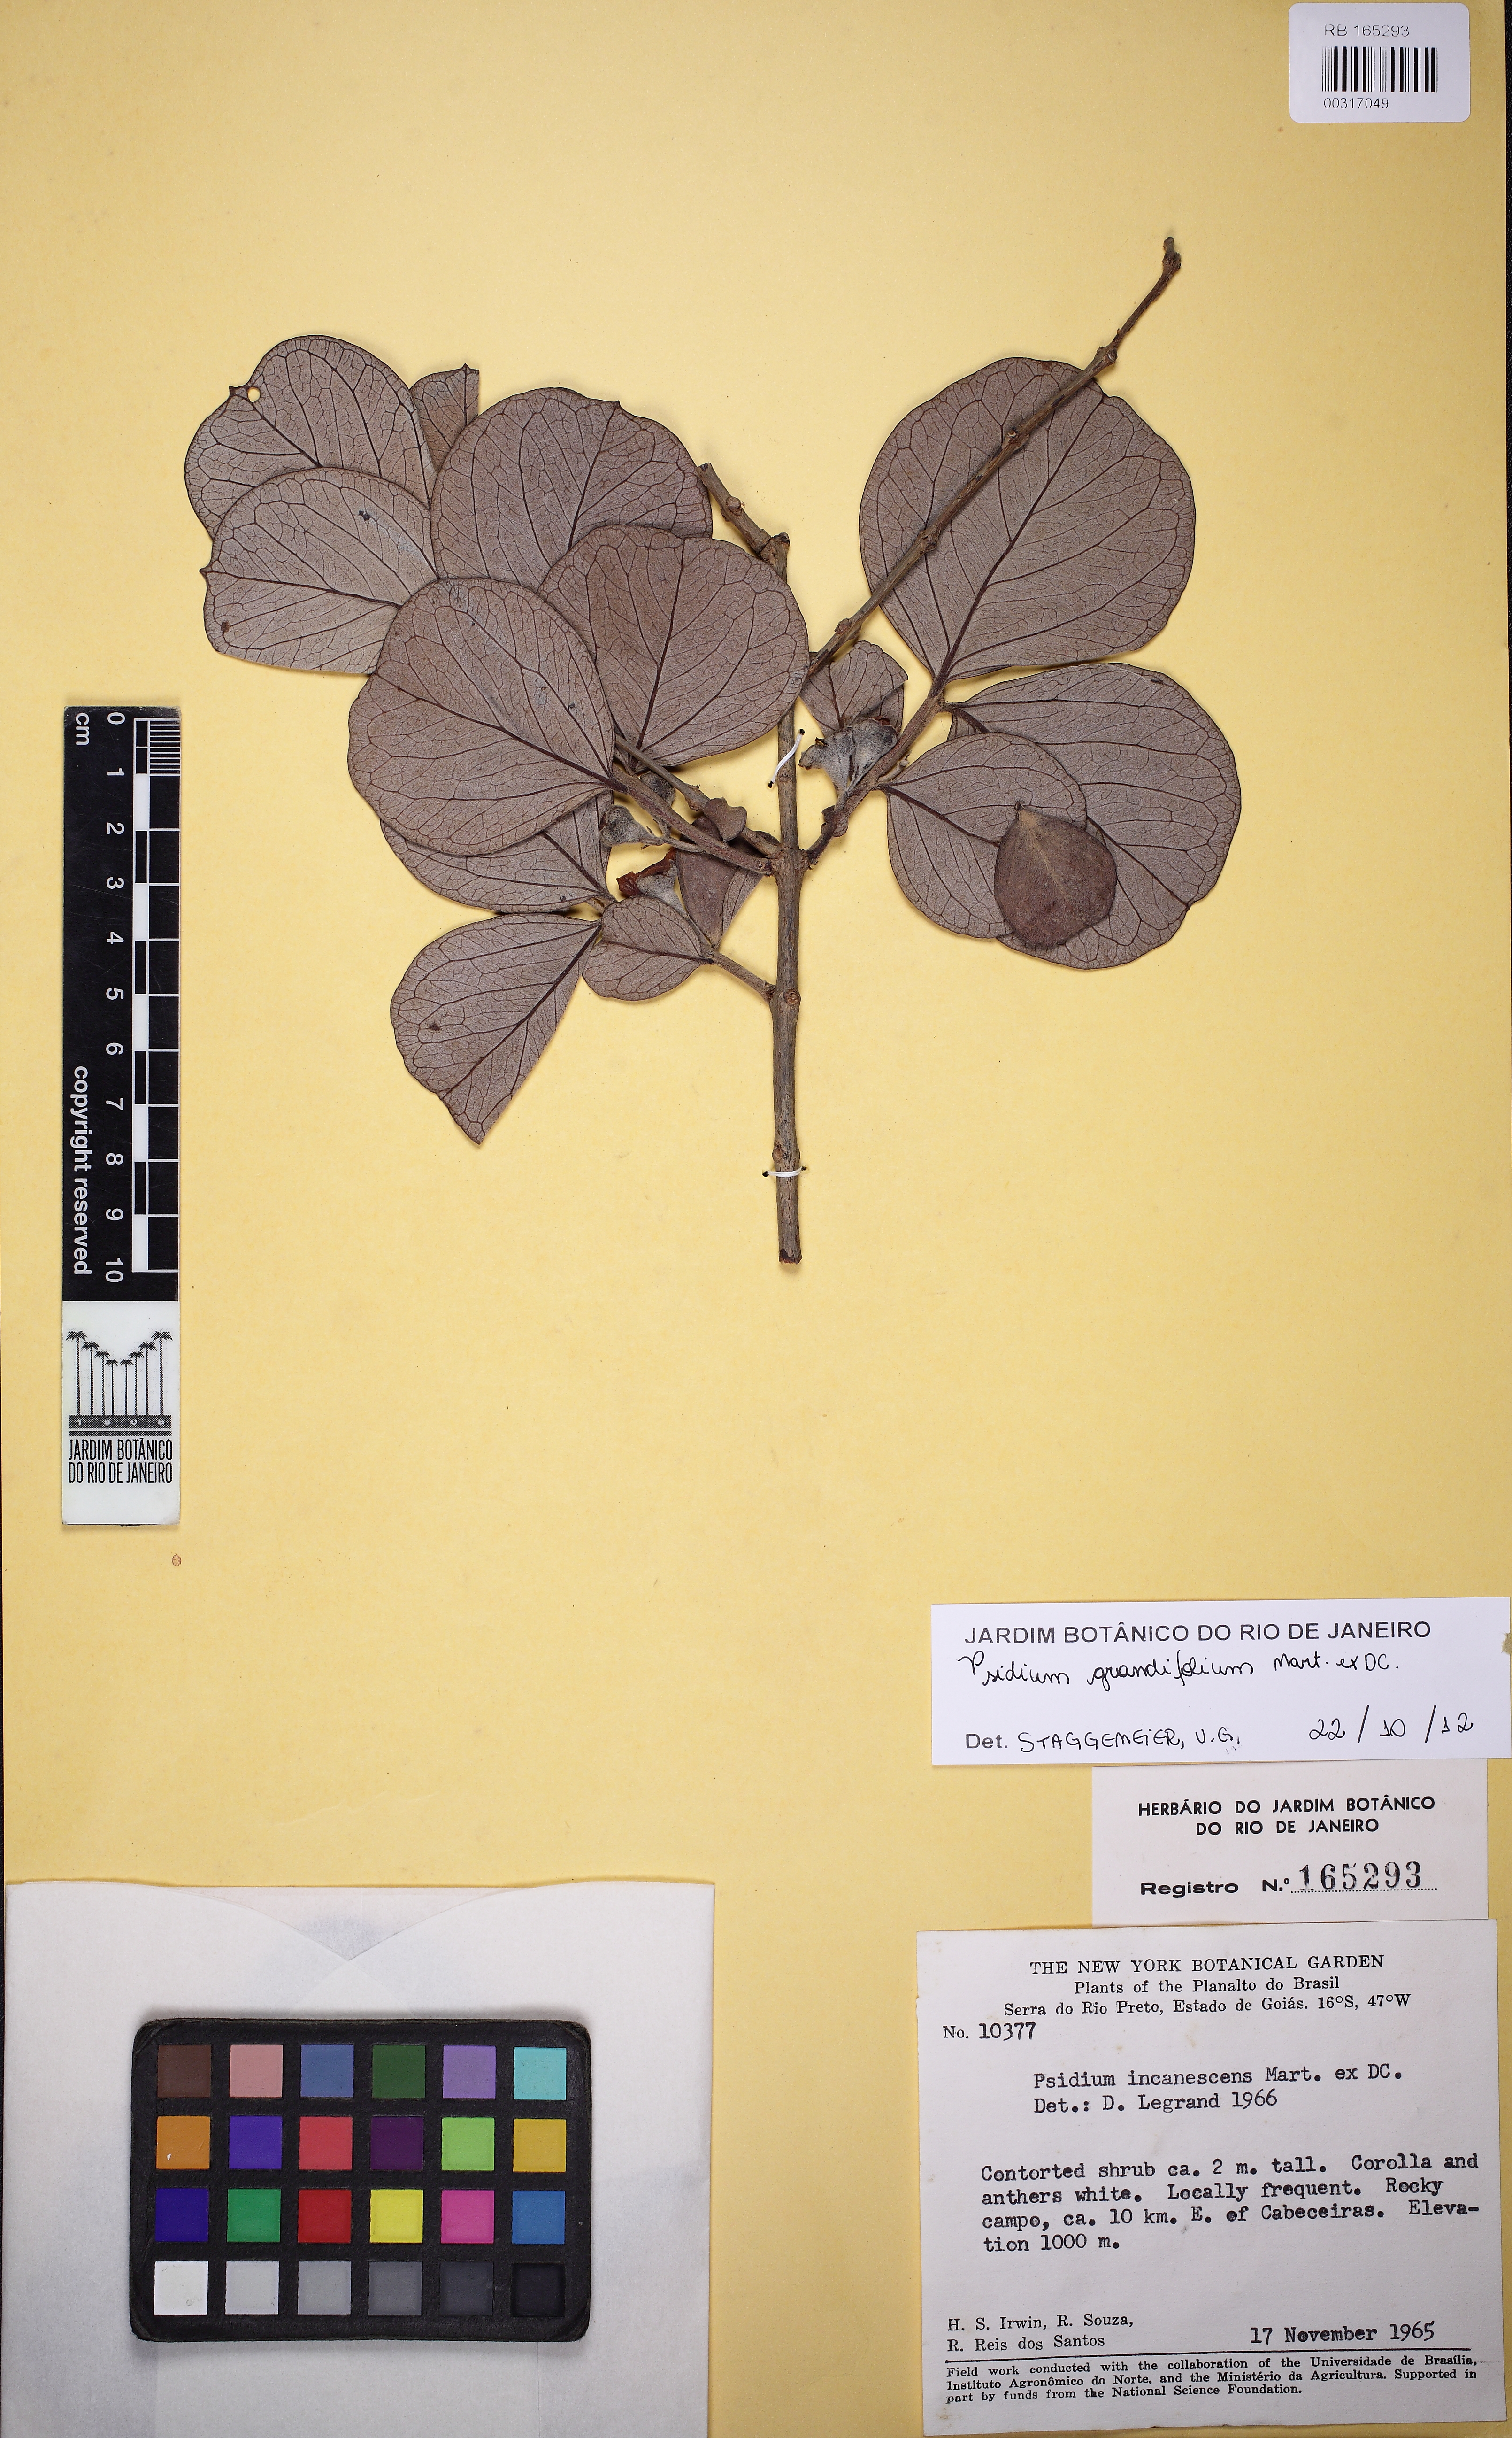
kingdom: Plantae
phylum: Tracheophyta
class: Magnoliopsida
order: Myrtales
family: Myrtaceae
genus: Psidium
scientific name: Psidium grandifolium
